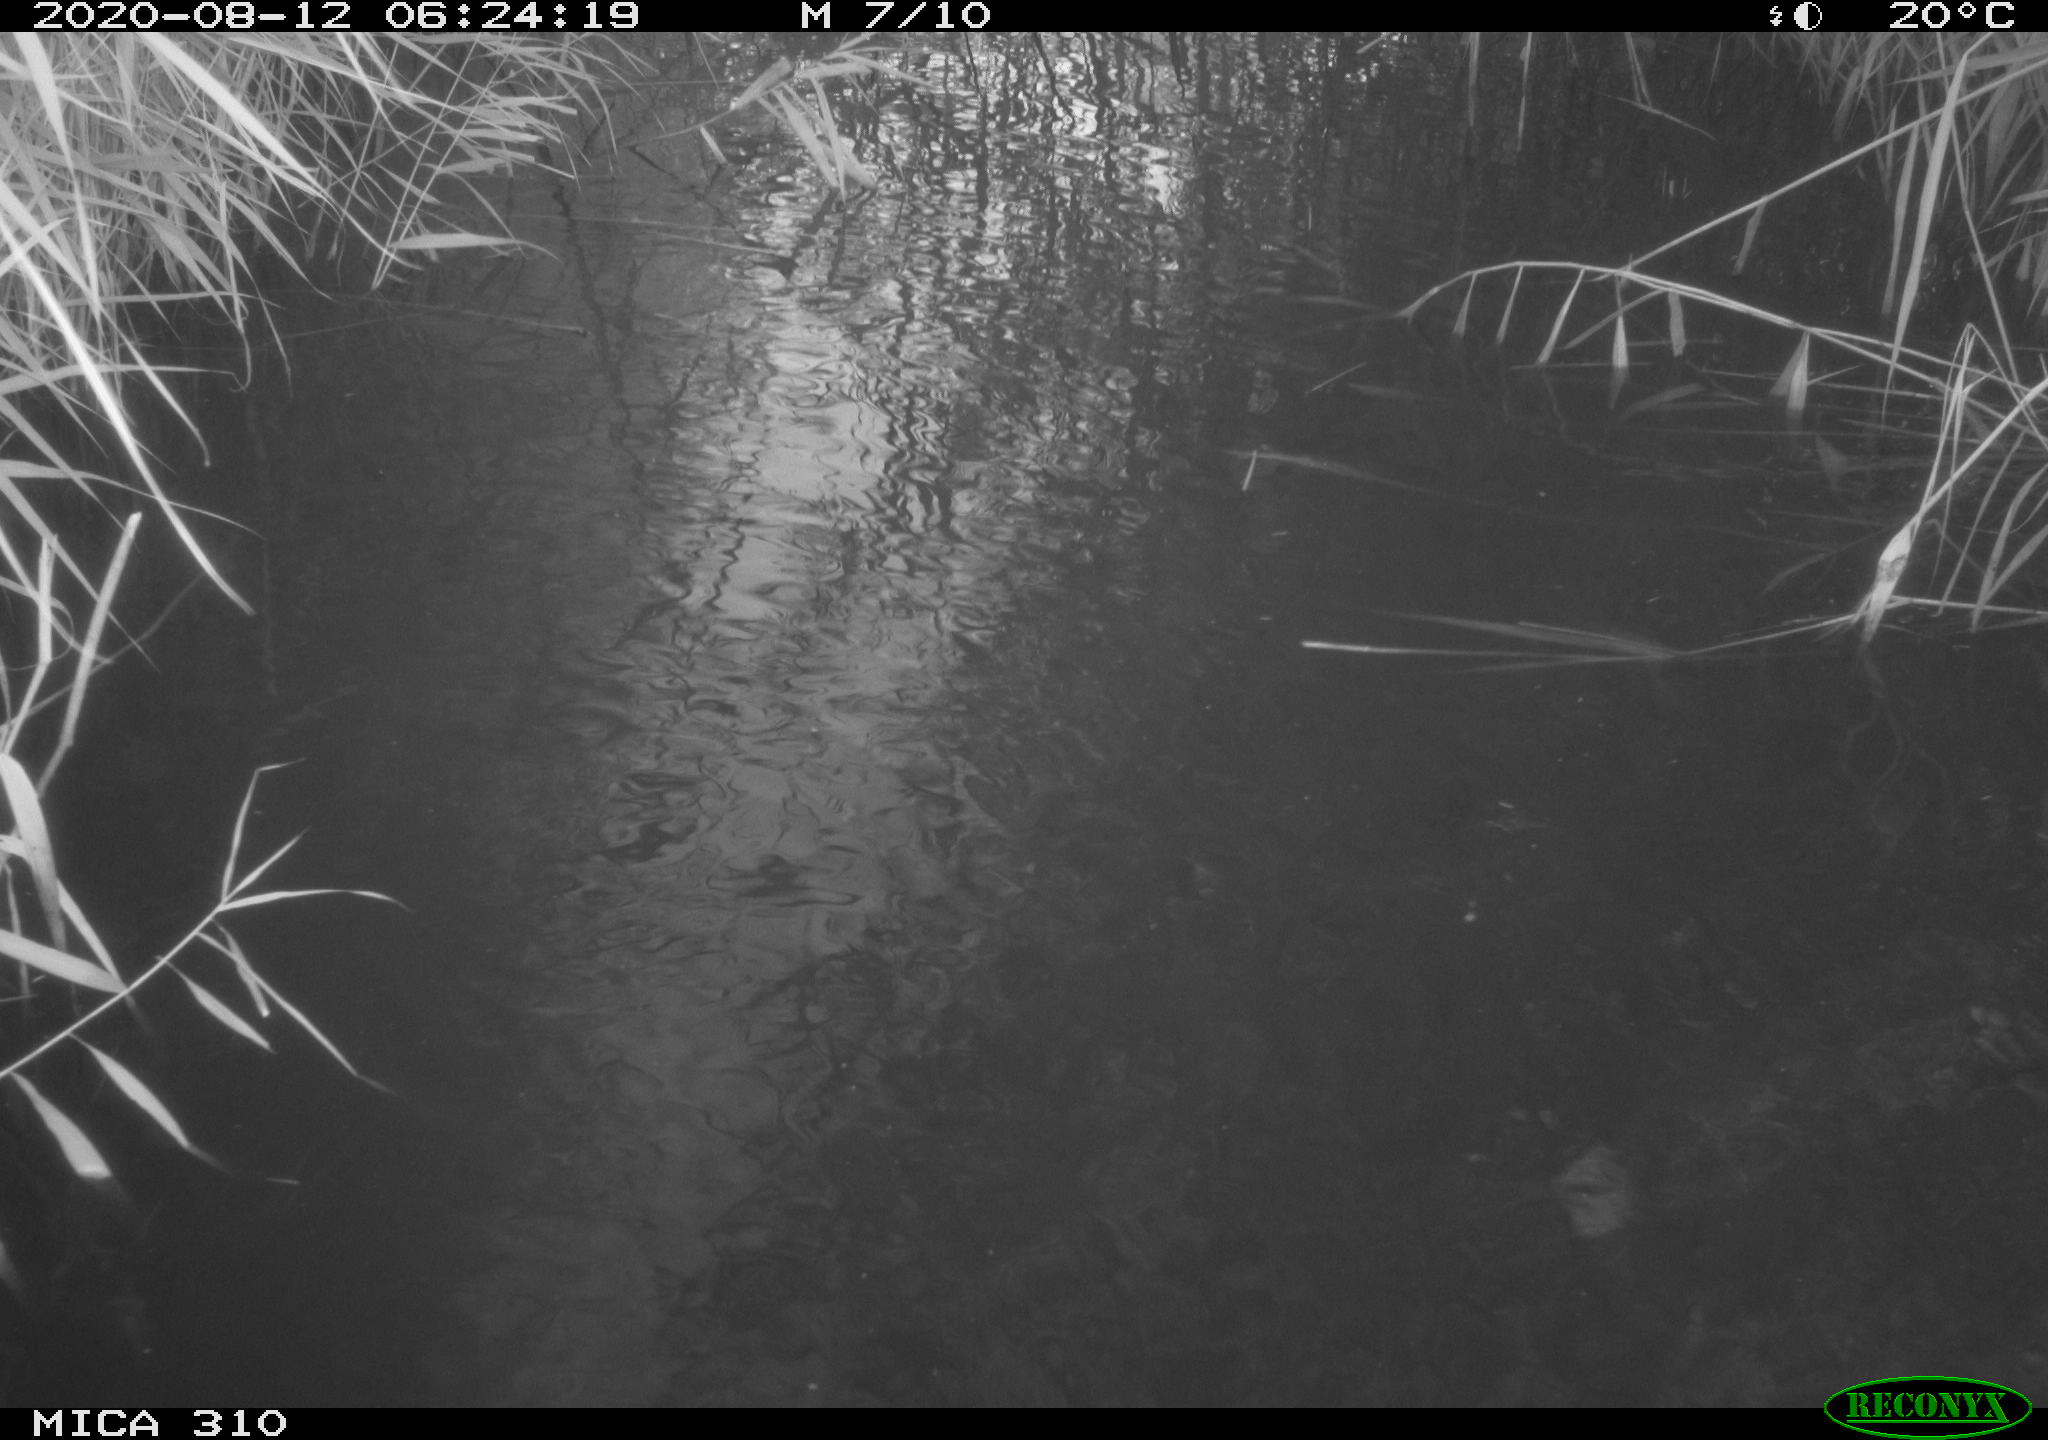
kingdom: Animalia
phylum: Chordata
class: Aves
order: Gruiformes
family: Rallidae
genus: Fulica
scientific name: Fulica atra
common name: Eurasian coot
